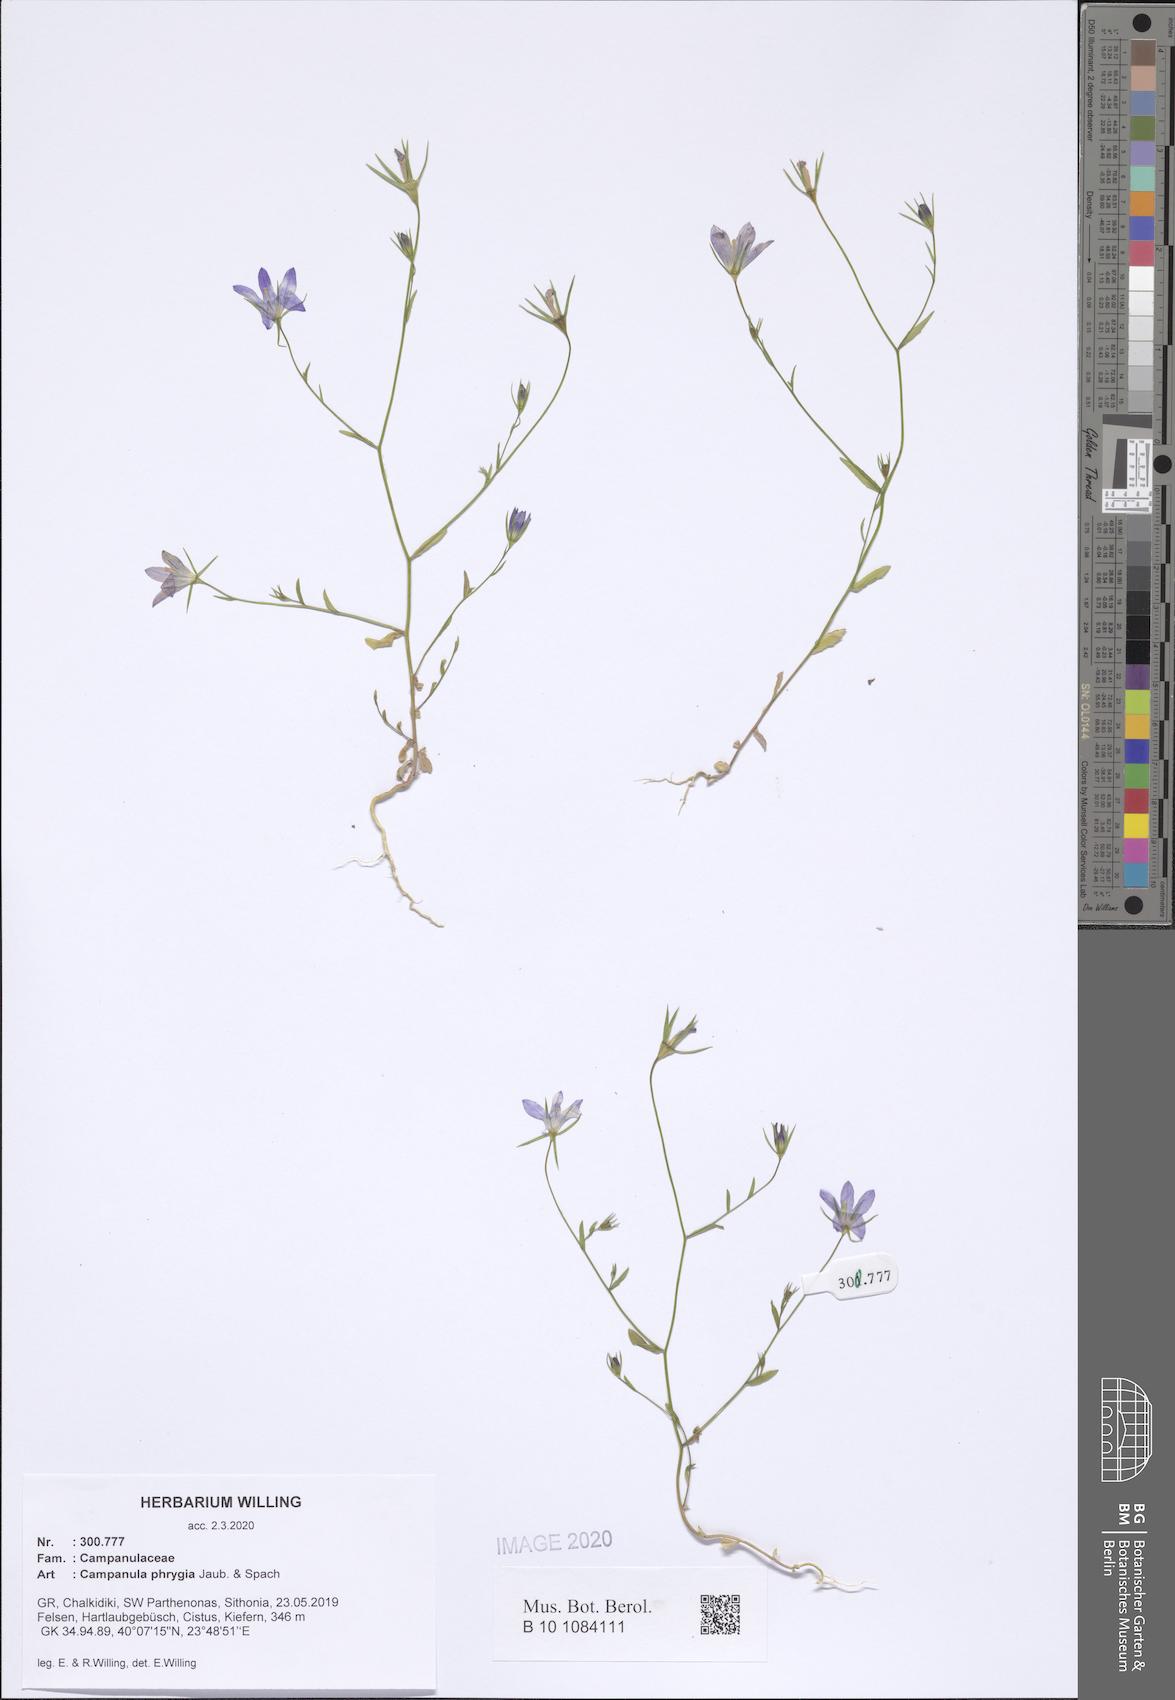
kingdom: Plantae
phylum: Tracheophyta
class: Magnoliopsida
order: Asterales
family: Campanulaceae
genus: Campanula
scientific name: Campanula phrygia
